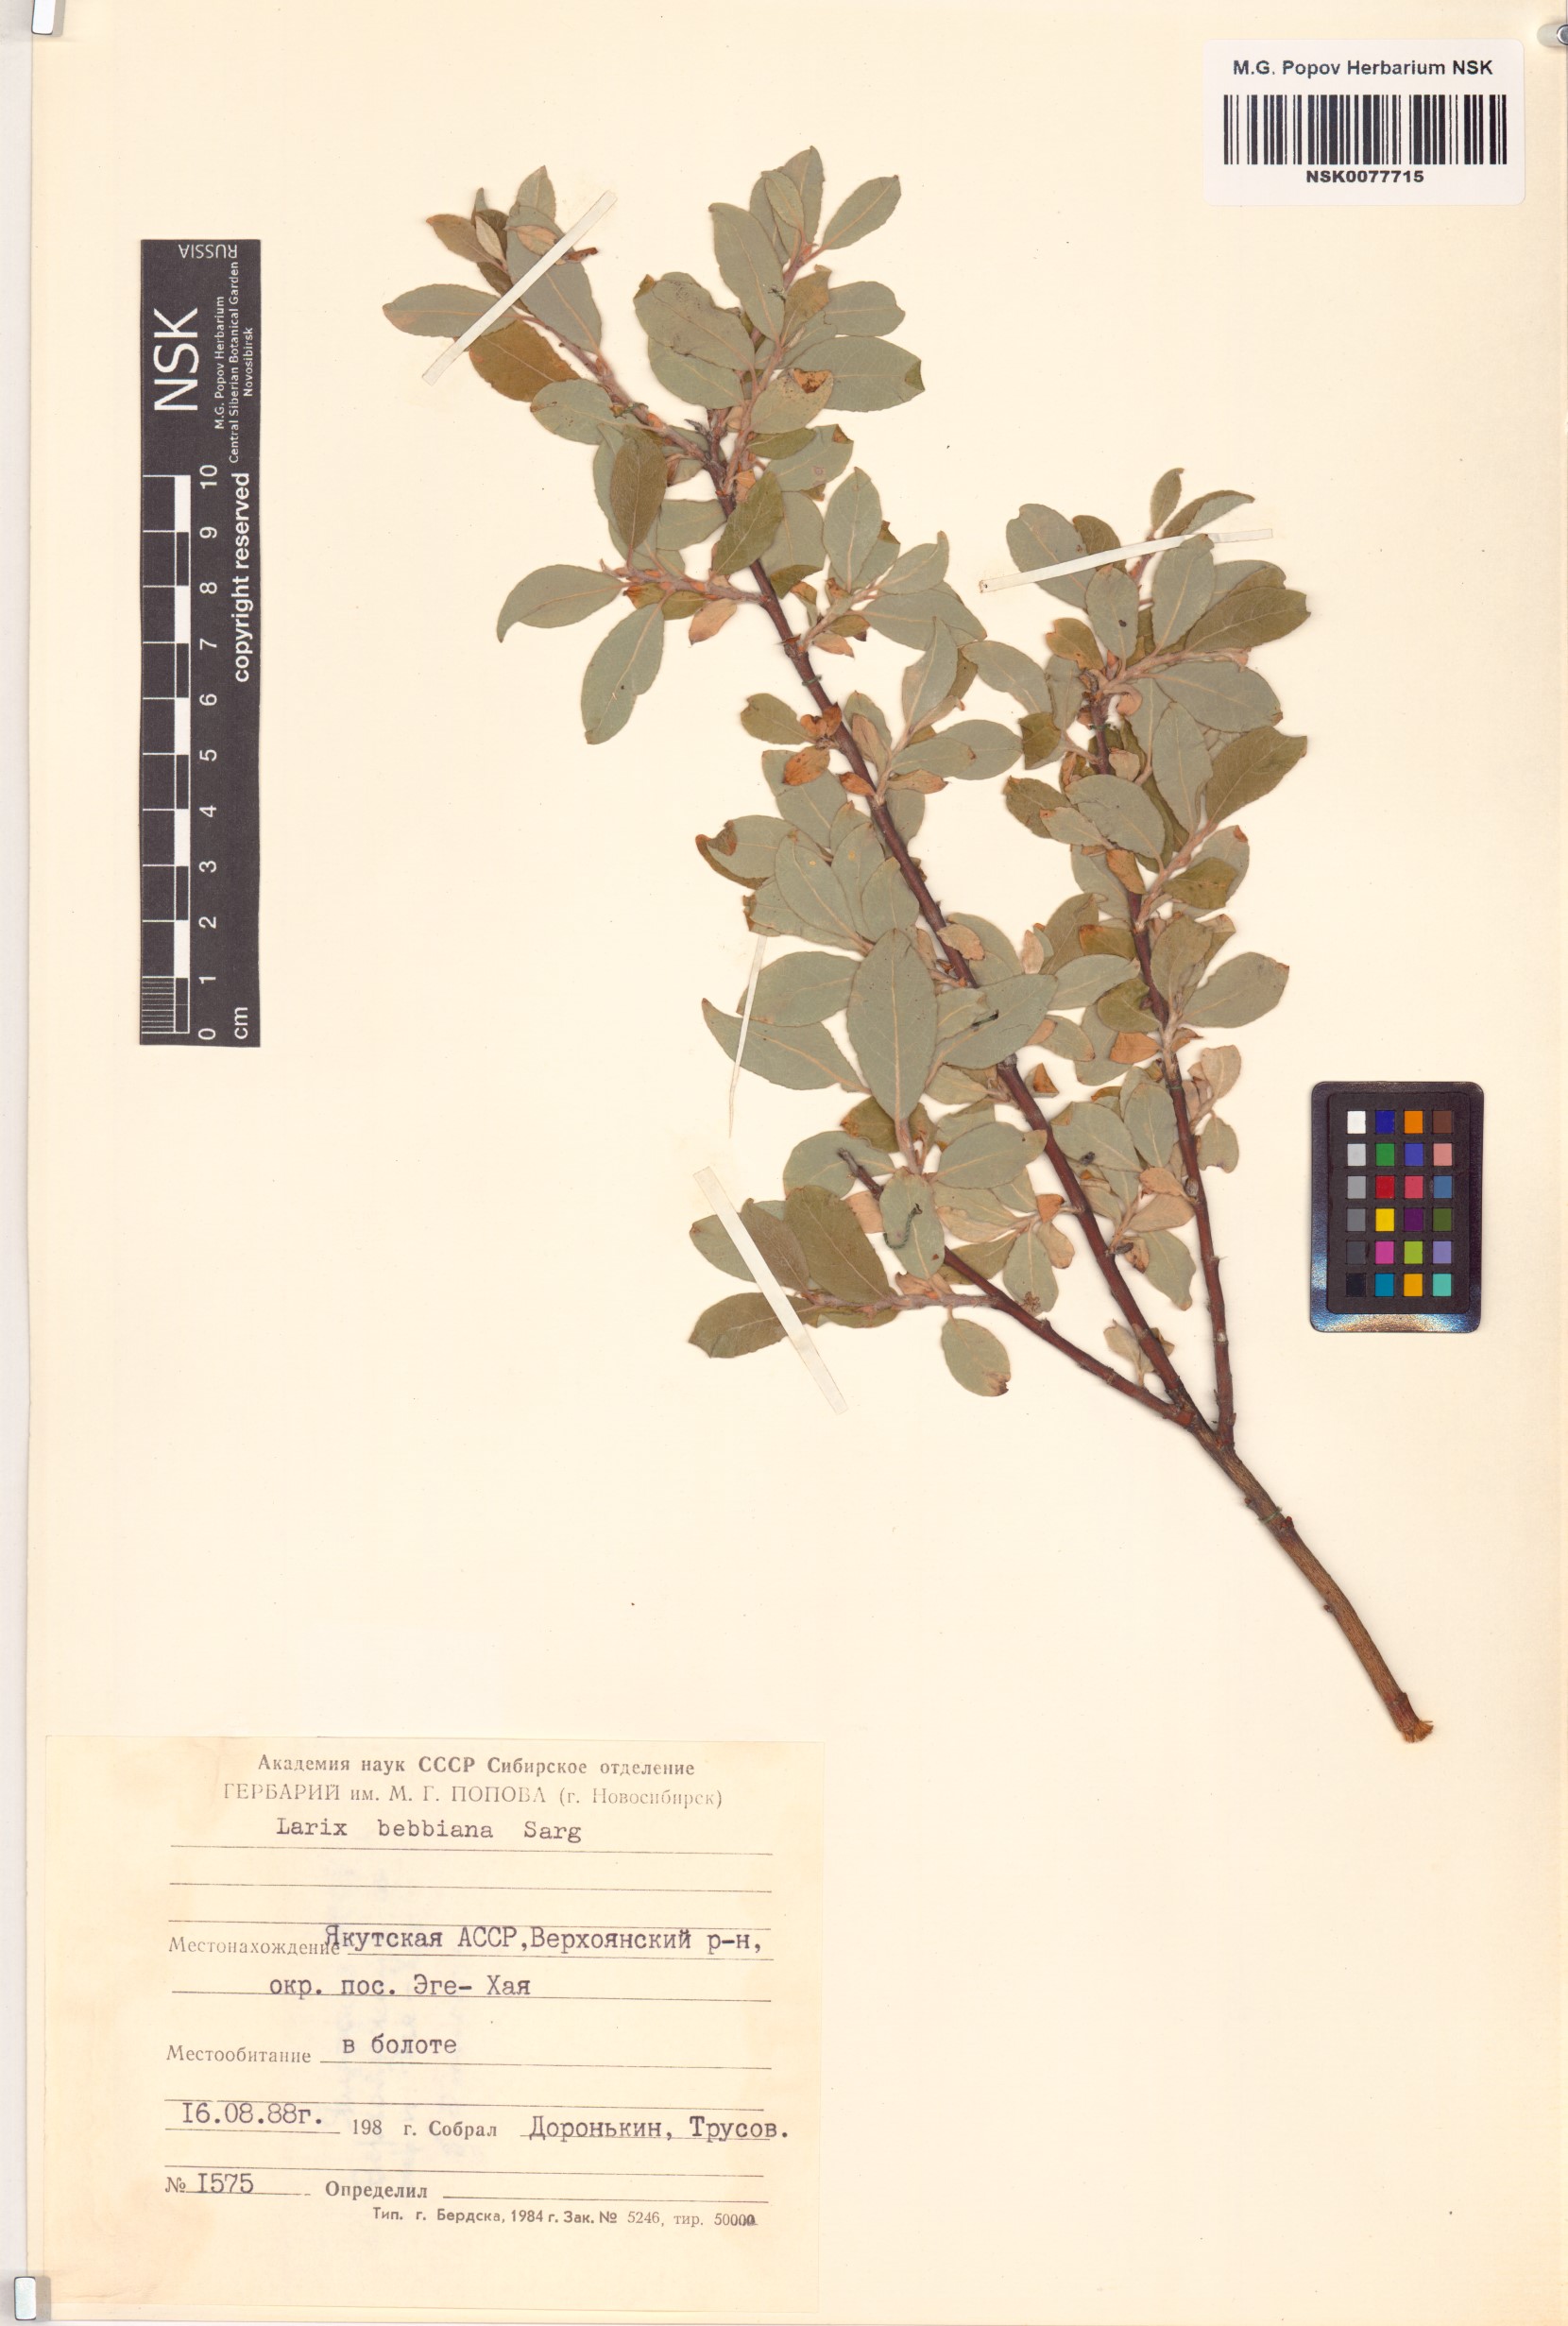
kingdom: Plantae
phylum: Tracheophyta
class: Magnoliopsida
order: Malpighiales
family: Salicaceae
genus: Salix
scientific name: Salix bebbiana
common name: Bebb's willow
